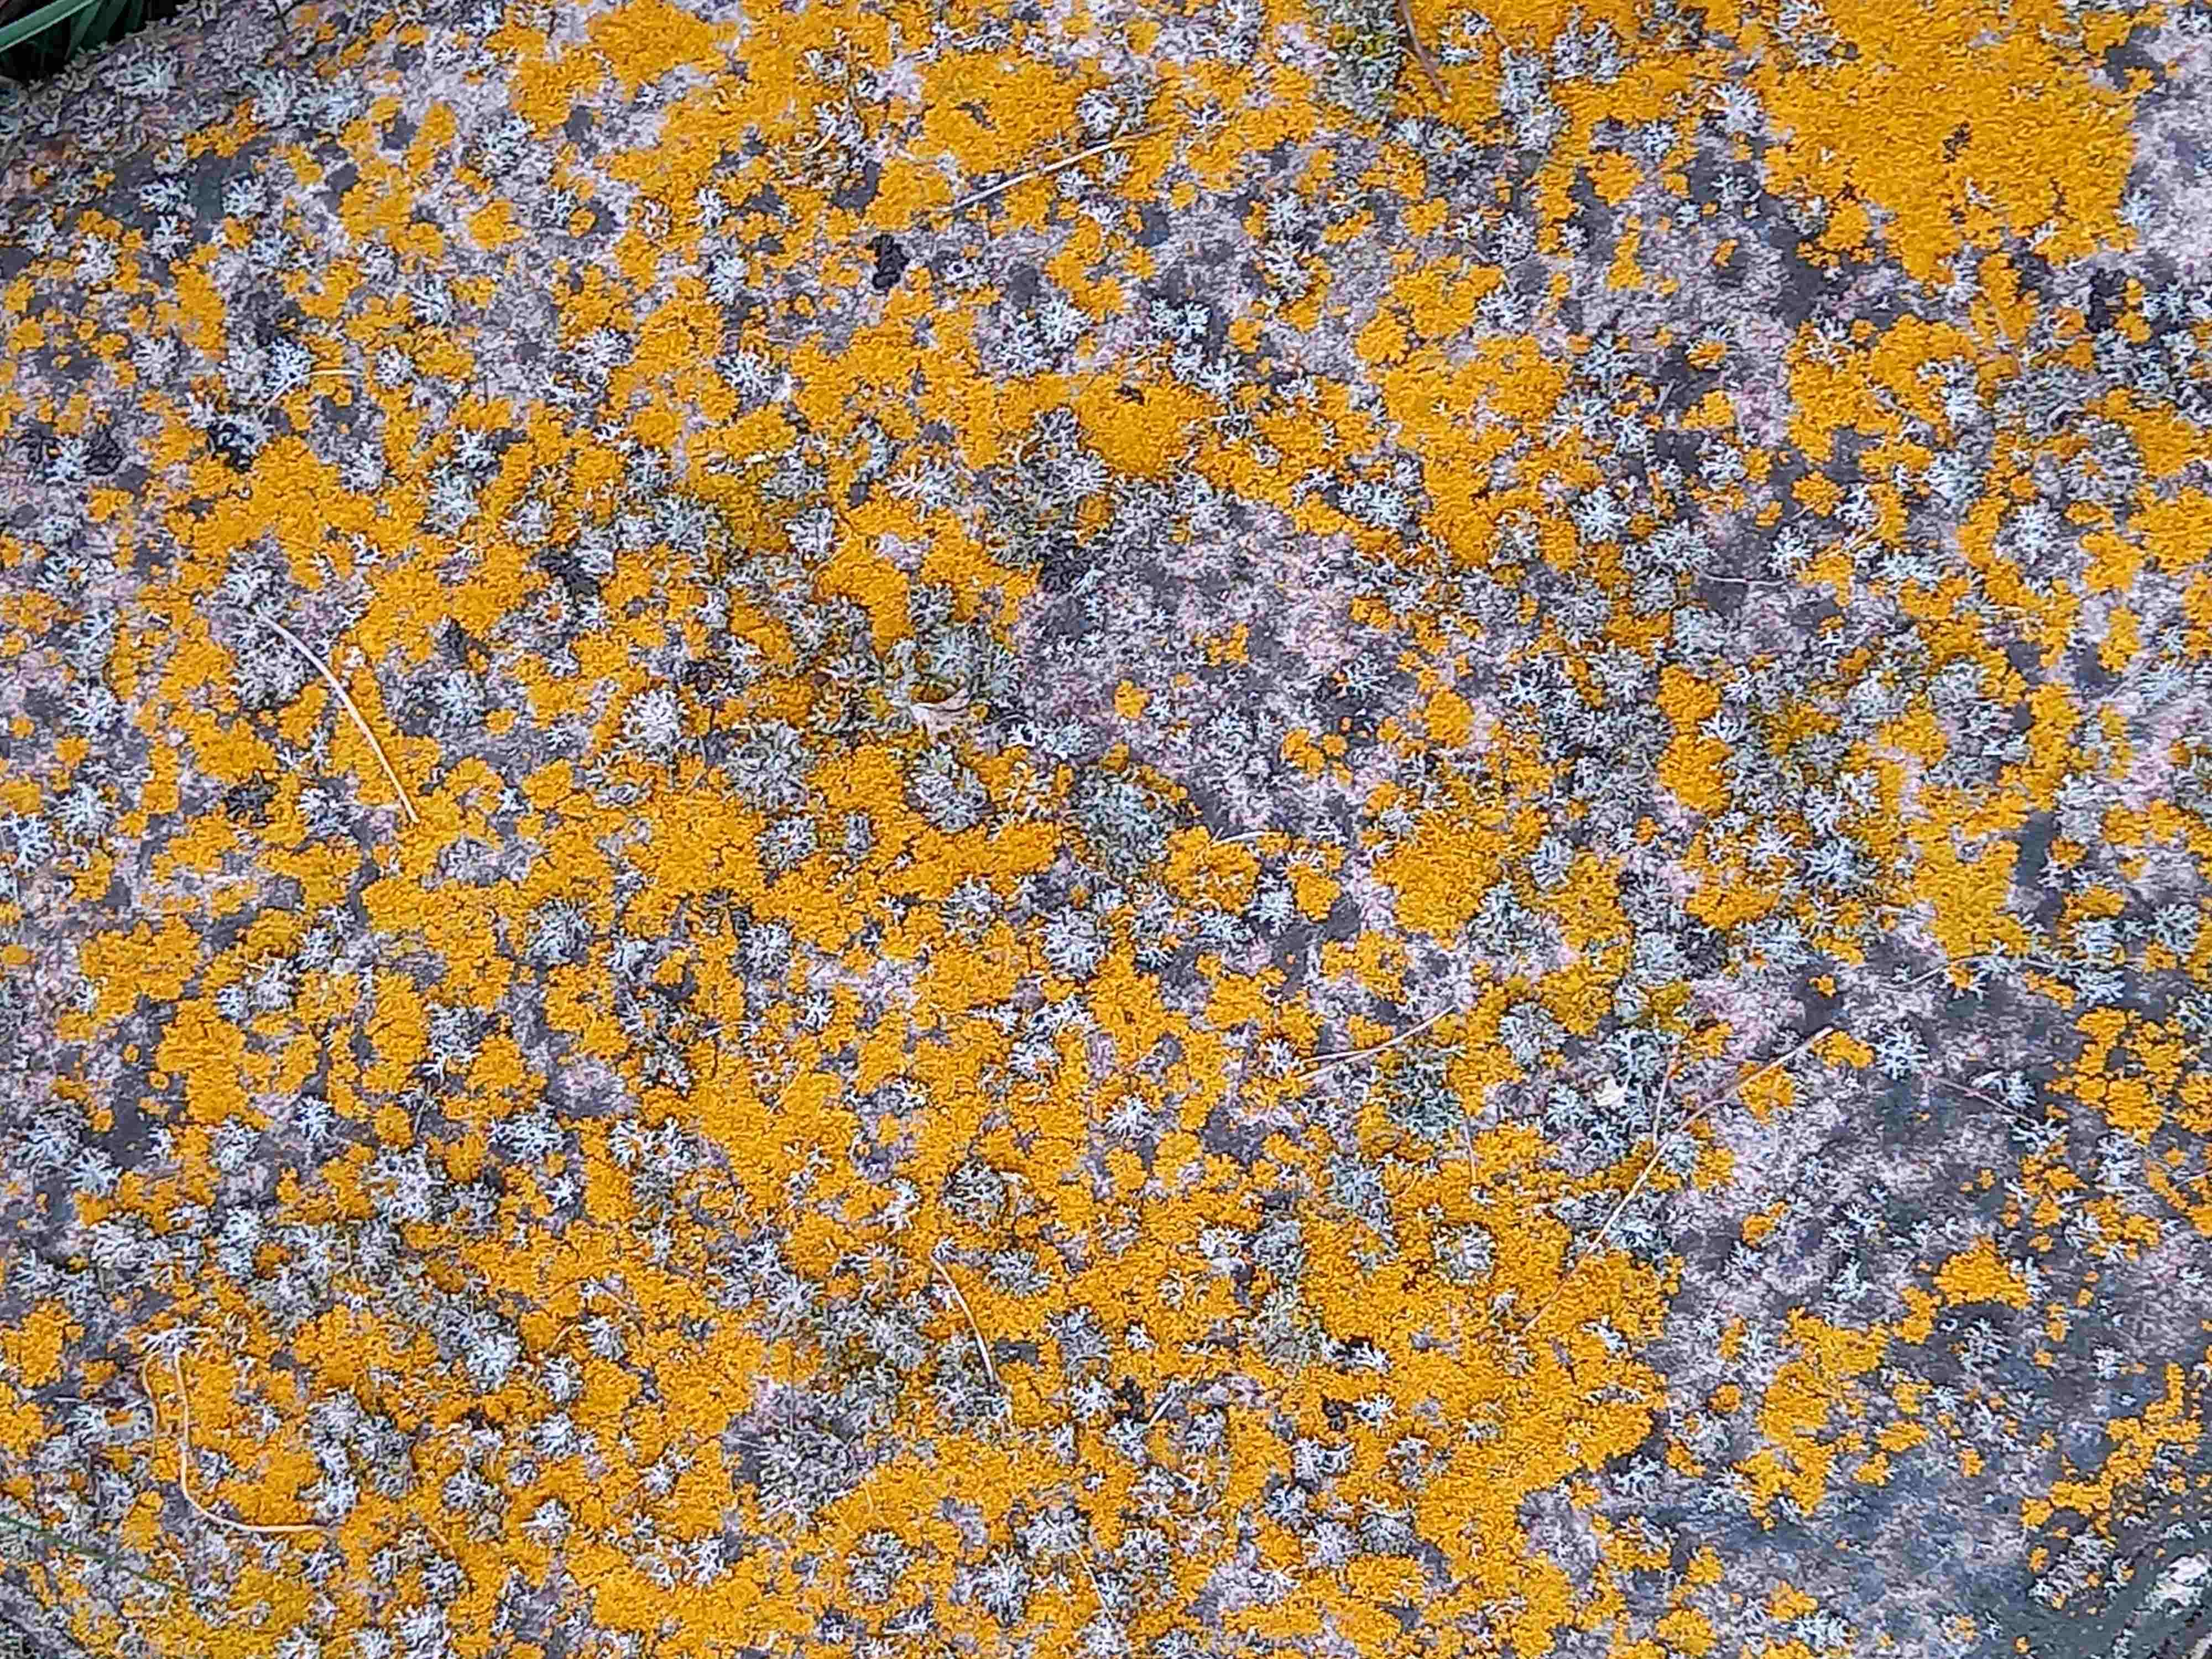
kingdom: Fungi
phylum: Ascomycota
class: Lecanoromycetes
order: Teloschistales
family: Teloschistaceae
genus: Xanthoria
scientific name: Xanthoria aureola
